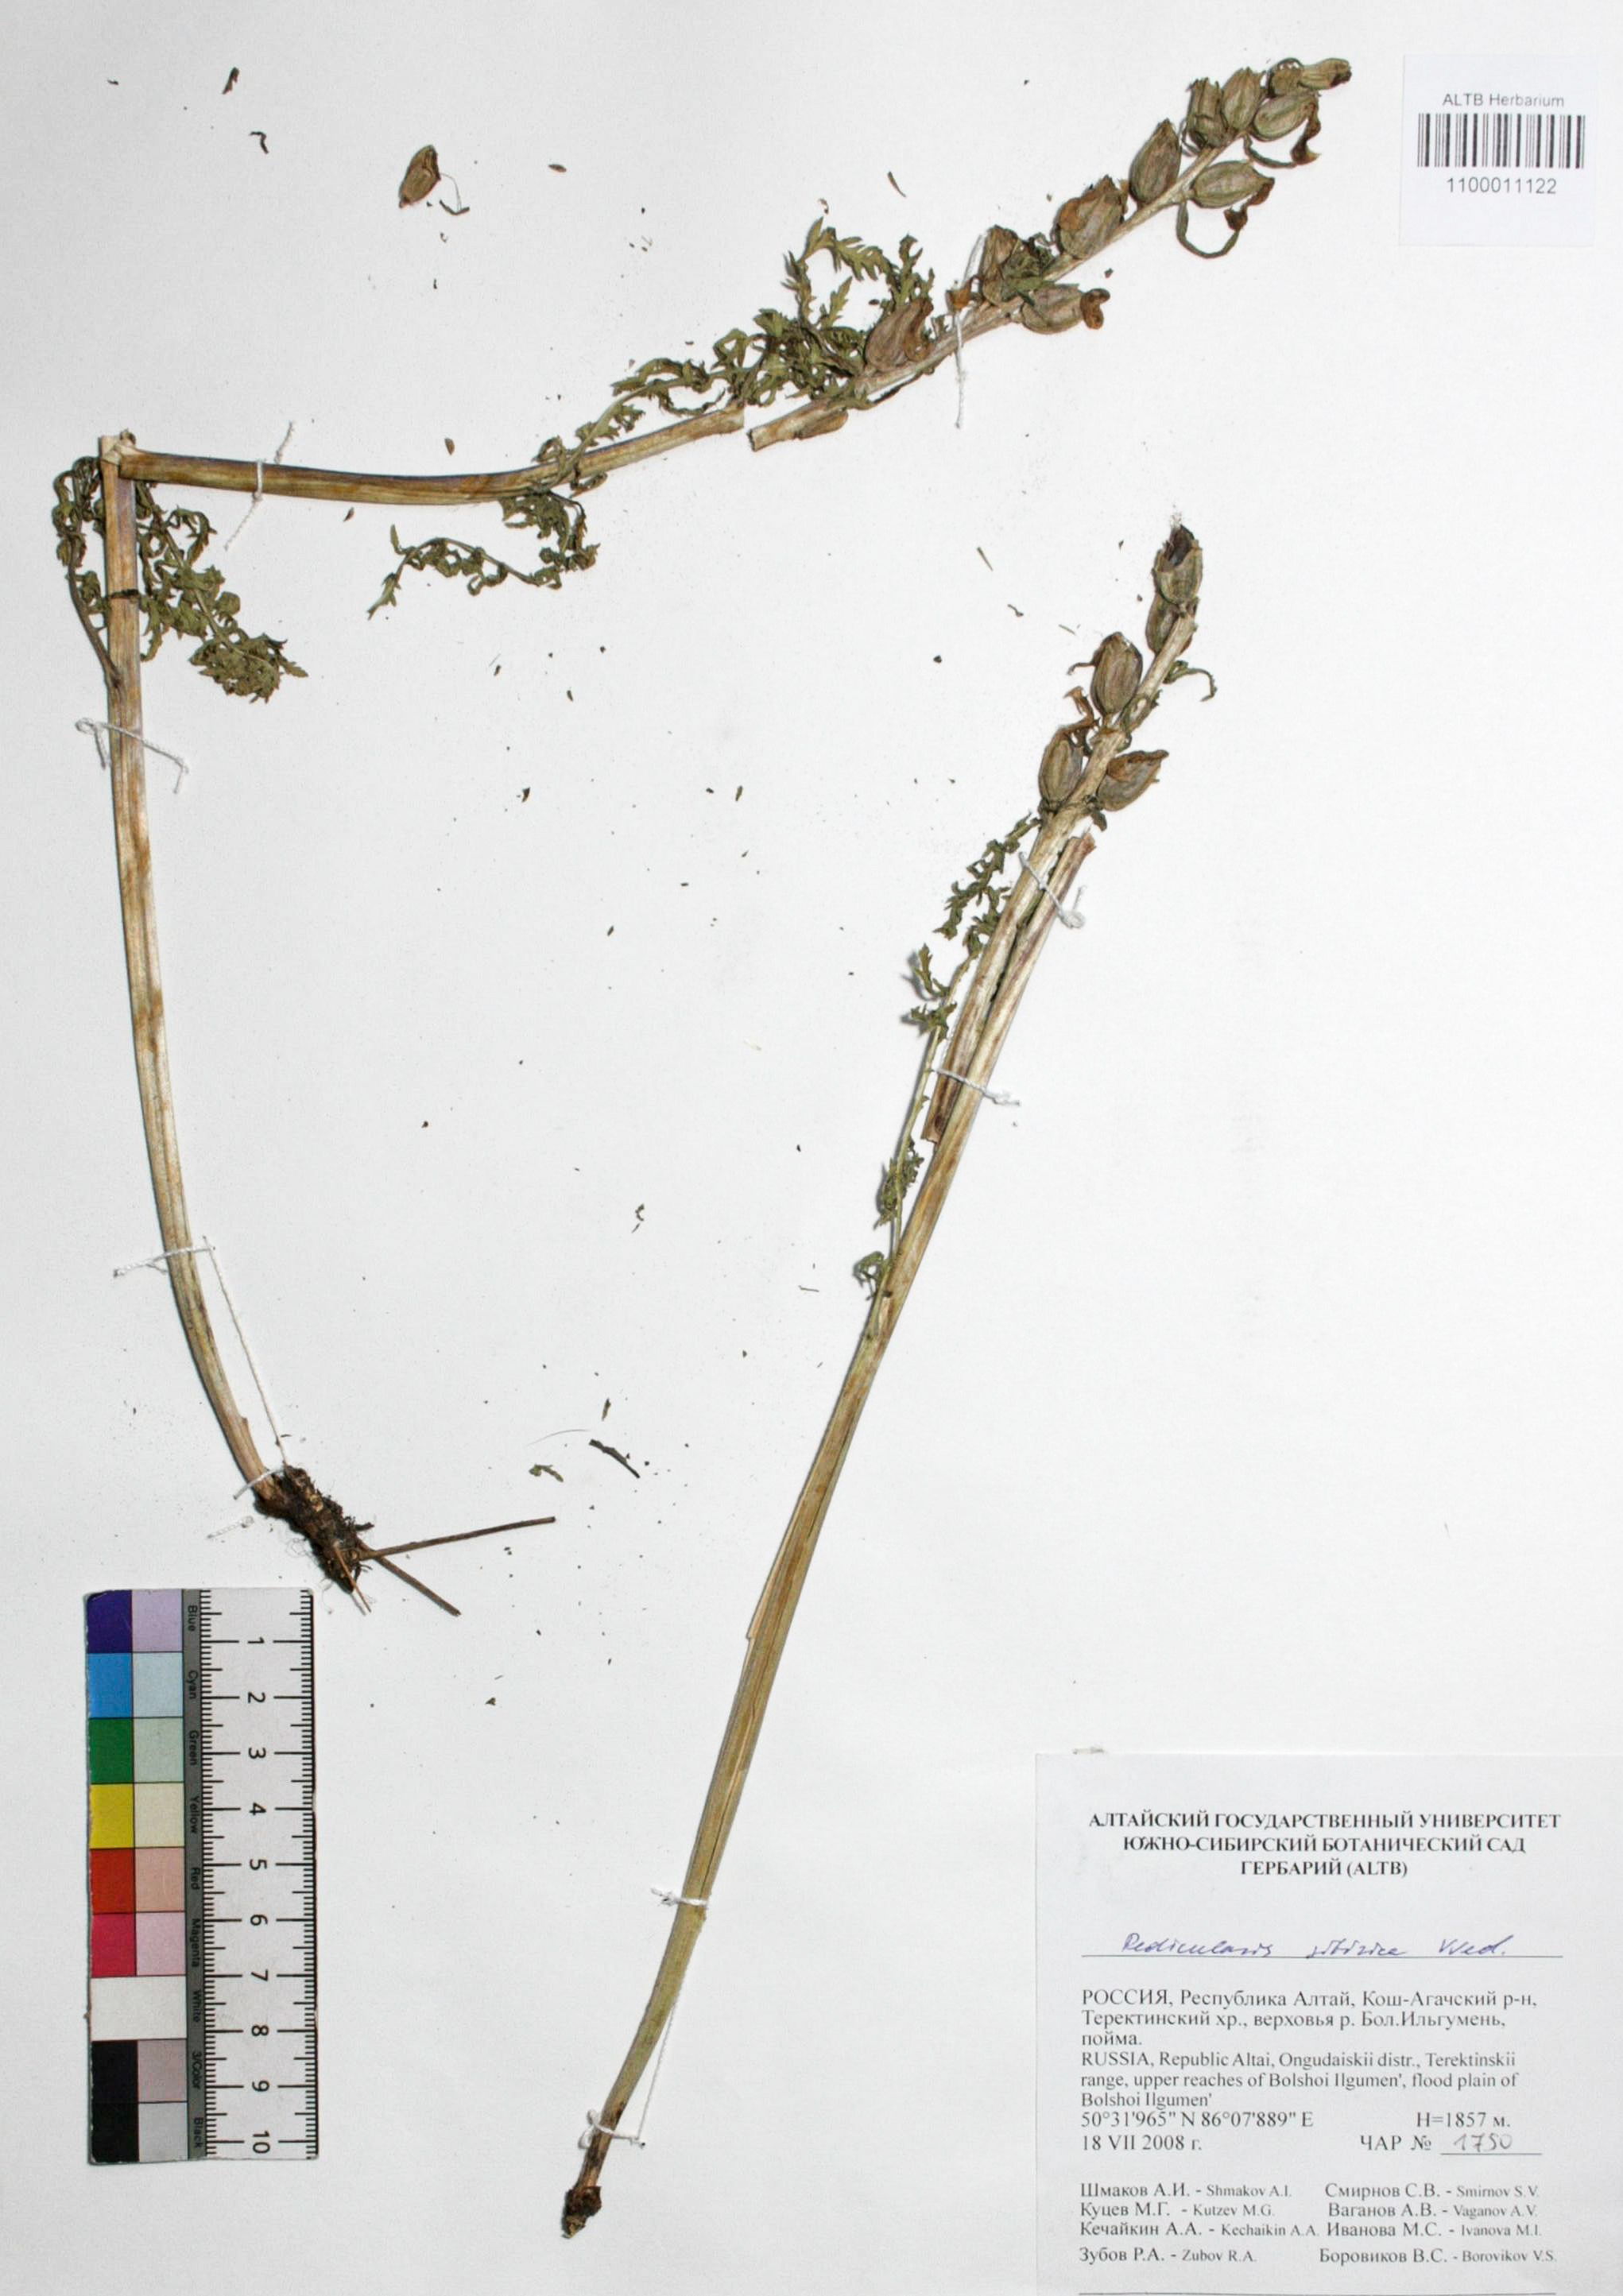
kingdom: Plantae
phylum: Tracheophyta
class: Magnoliopsida
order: Lamiales
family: Orobanchaceae
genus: Pedicularis
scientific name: Pedicularis sibirica
